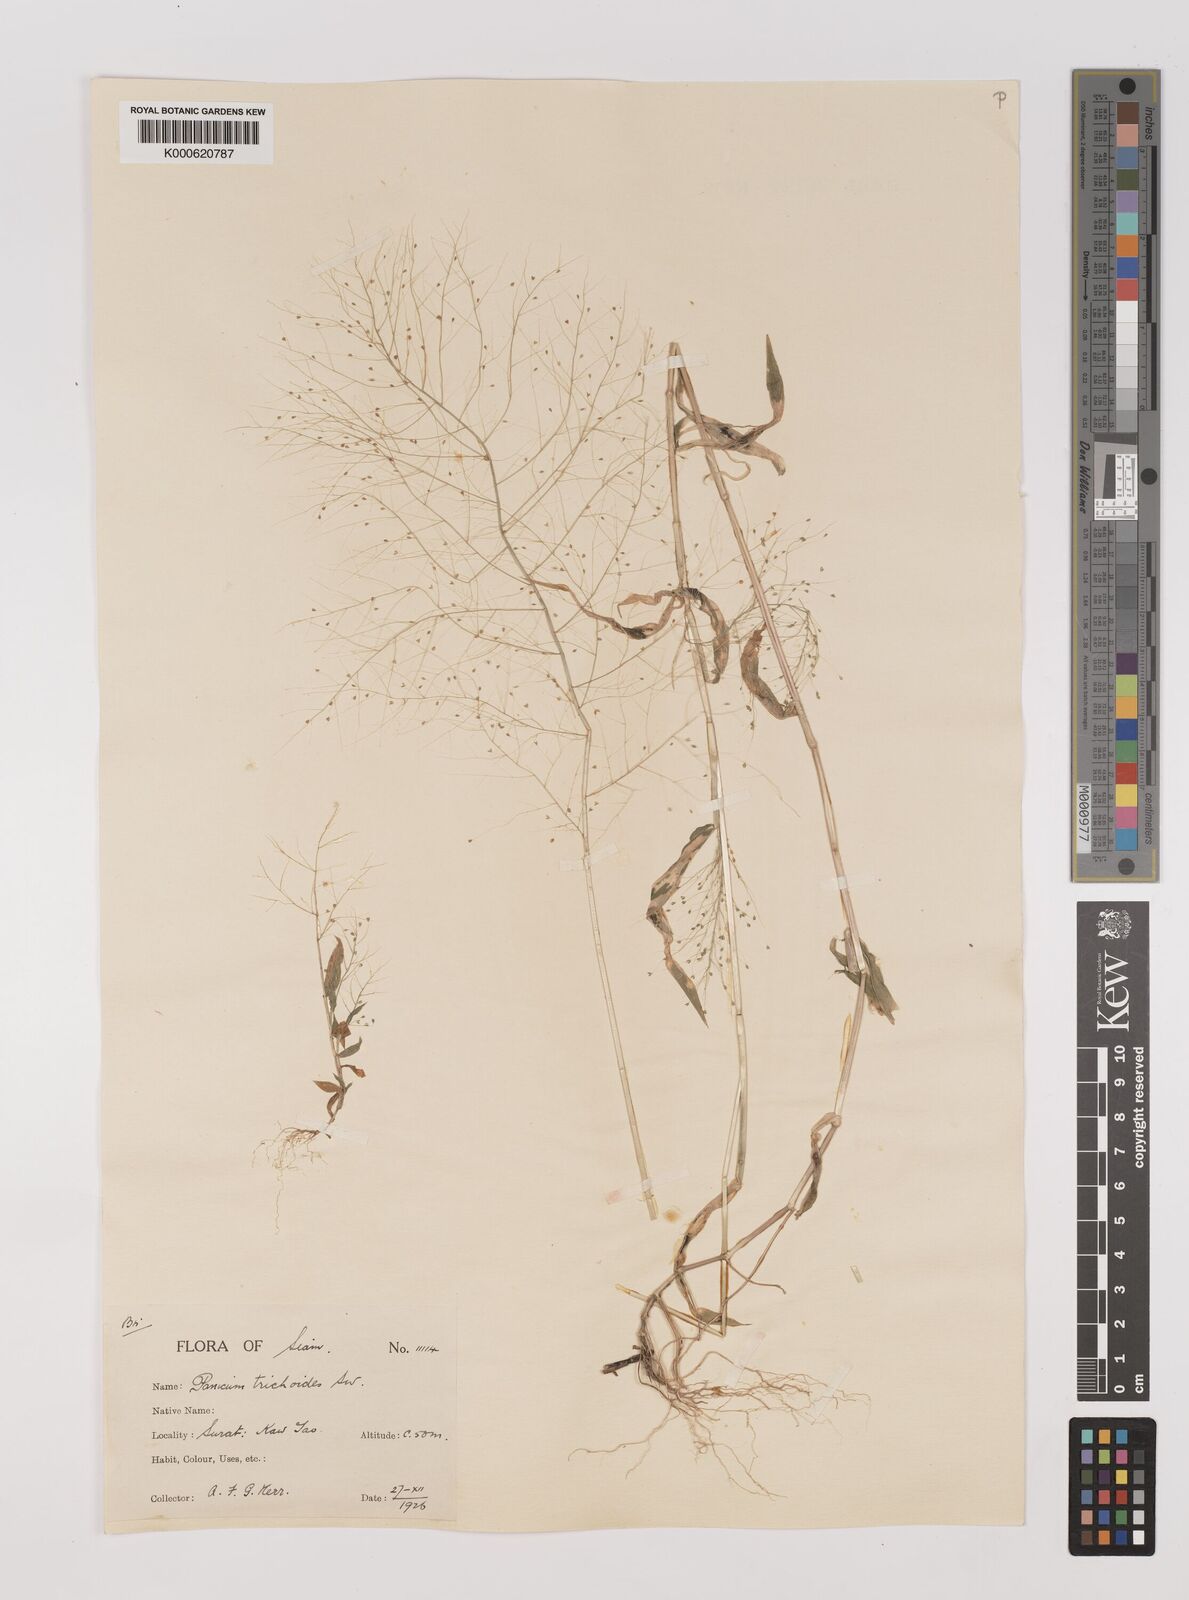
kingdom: Plantae
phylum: Tracheophyta
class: Liliopsida
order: Poales
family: Poaceae
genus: Panicum
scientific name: Panicum trichoides
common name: Tickle grass
